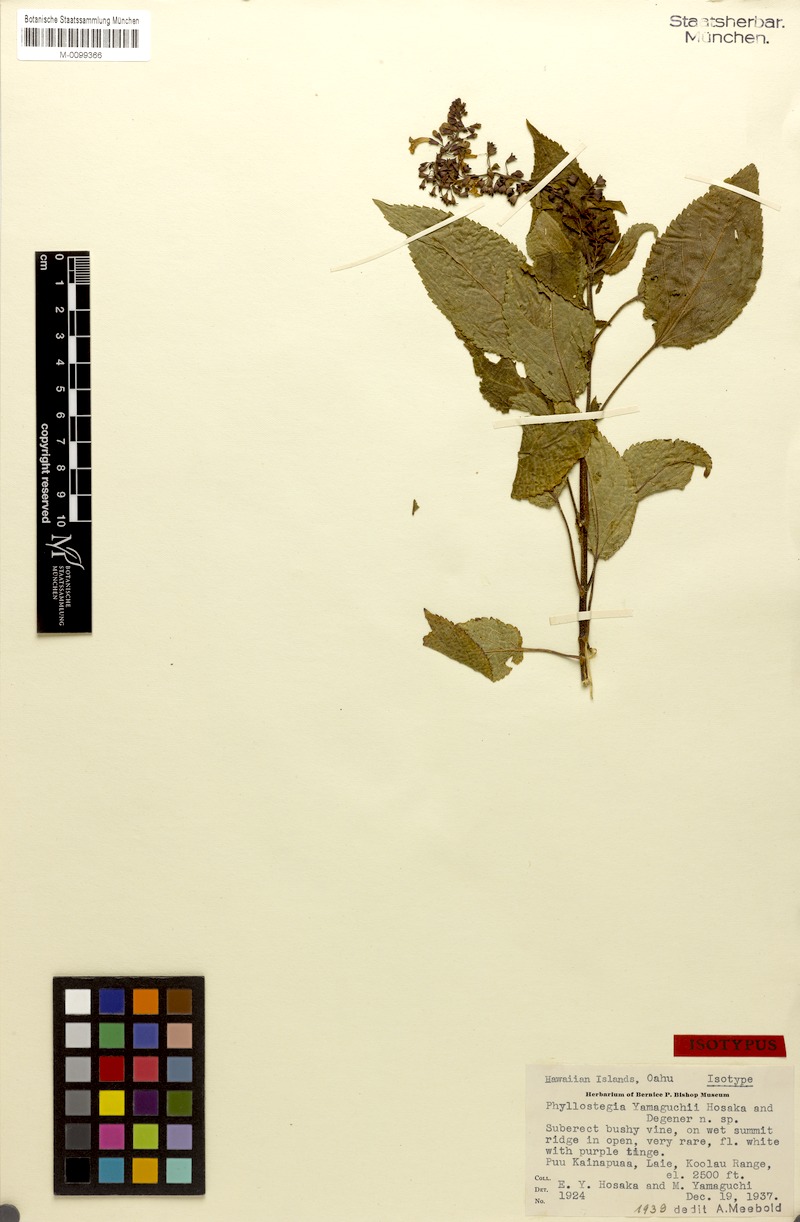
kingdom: Plantae
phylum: Tracheophyta
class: Magnoliopsida
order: Lamiales
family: Lamiaceae
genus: Phyllostegia
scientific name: Phyllostegia yamaguchii
